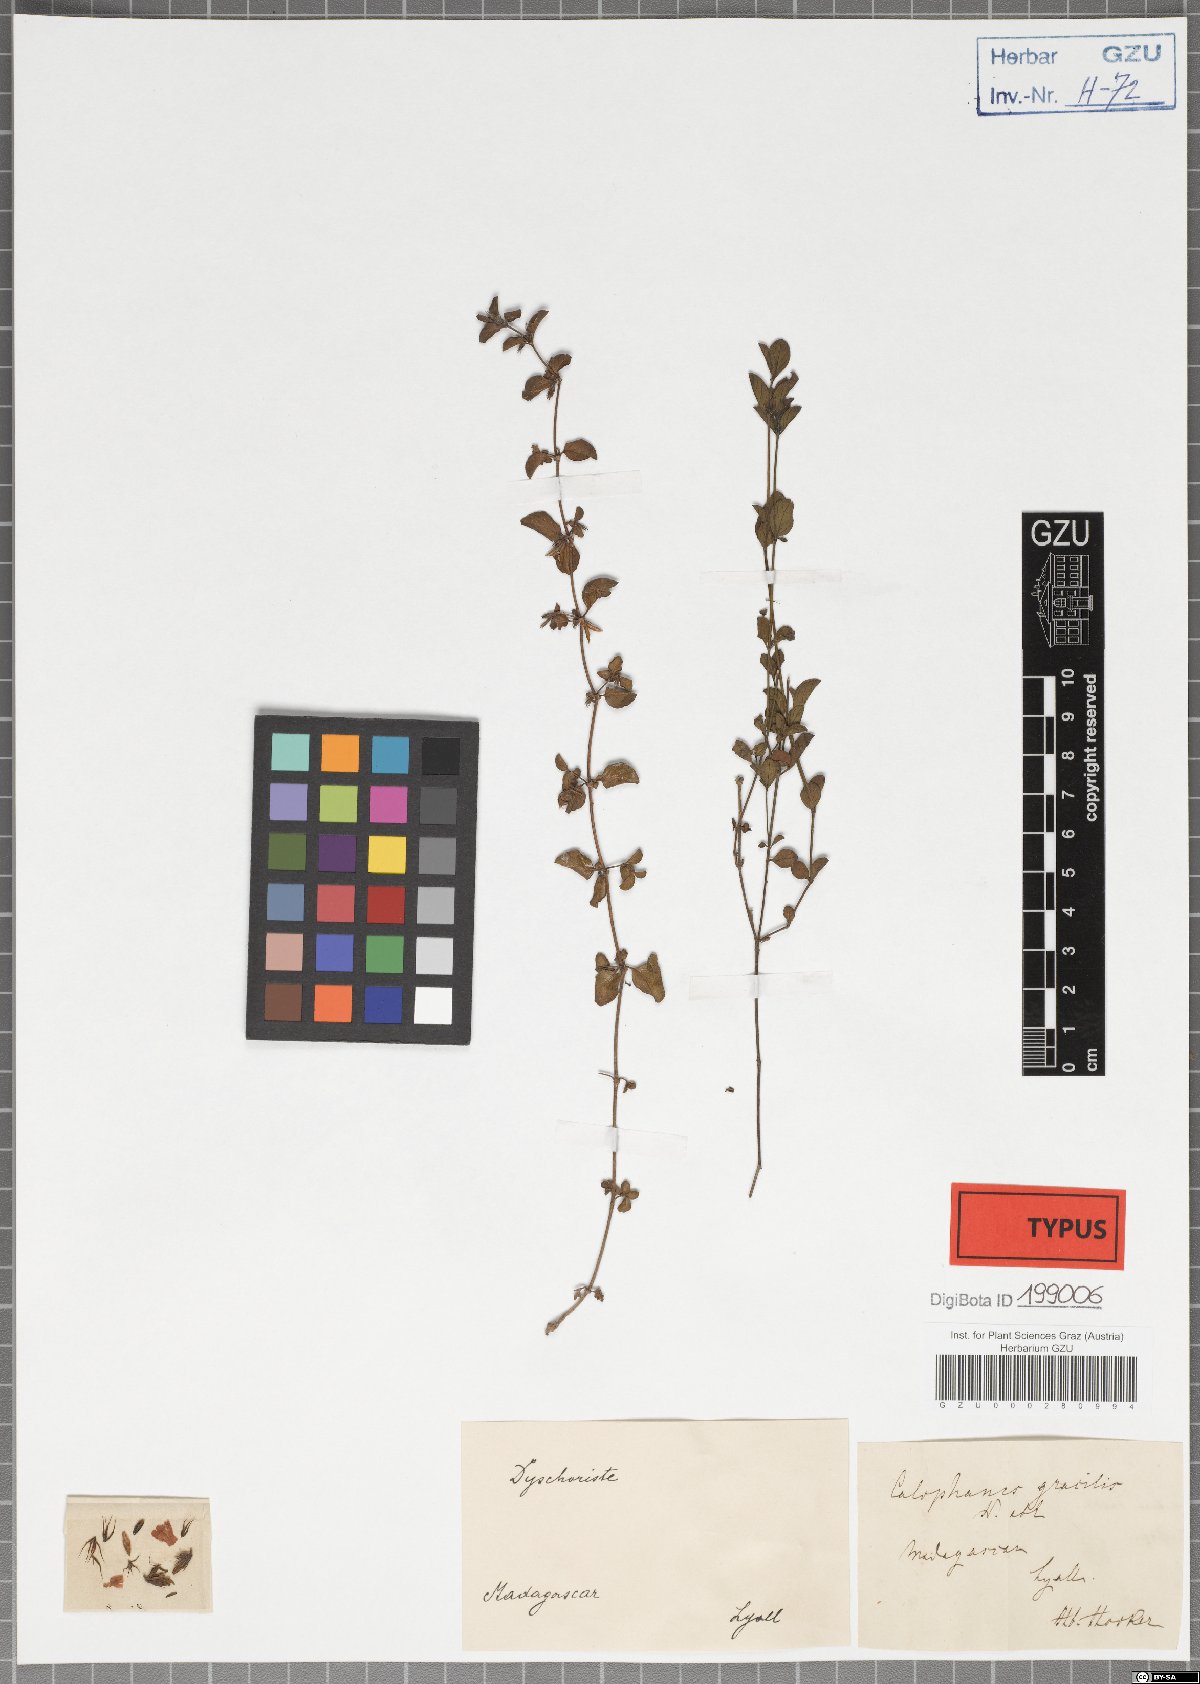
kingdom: Plantae
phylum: Tracheophyta
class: Magnoliopsida
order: Lamiales
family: Acanthaceae
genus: Dyschoriste
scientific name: Dyschoriste gracilis
